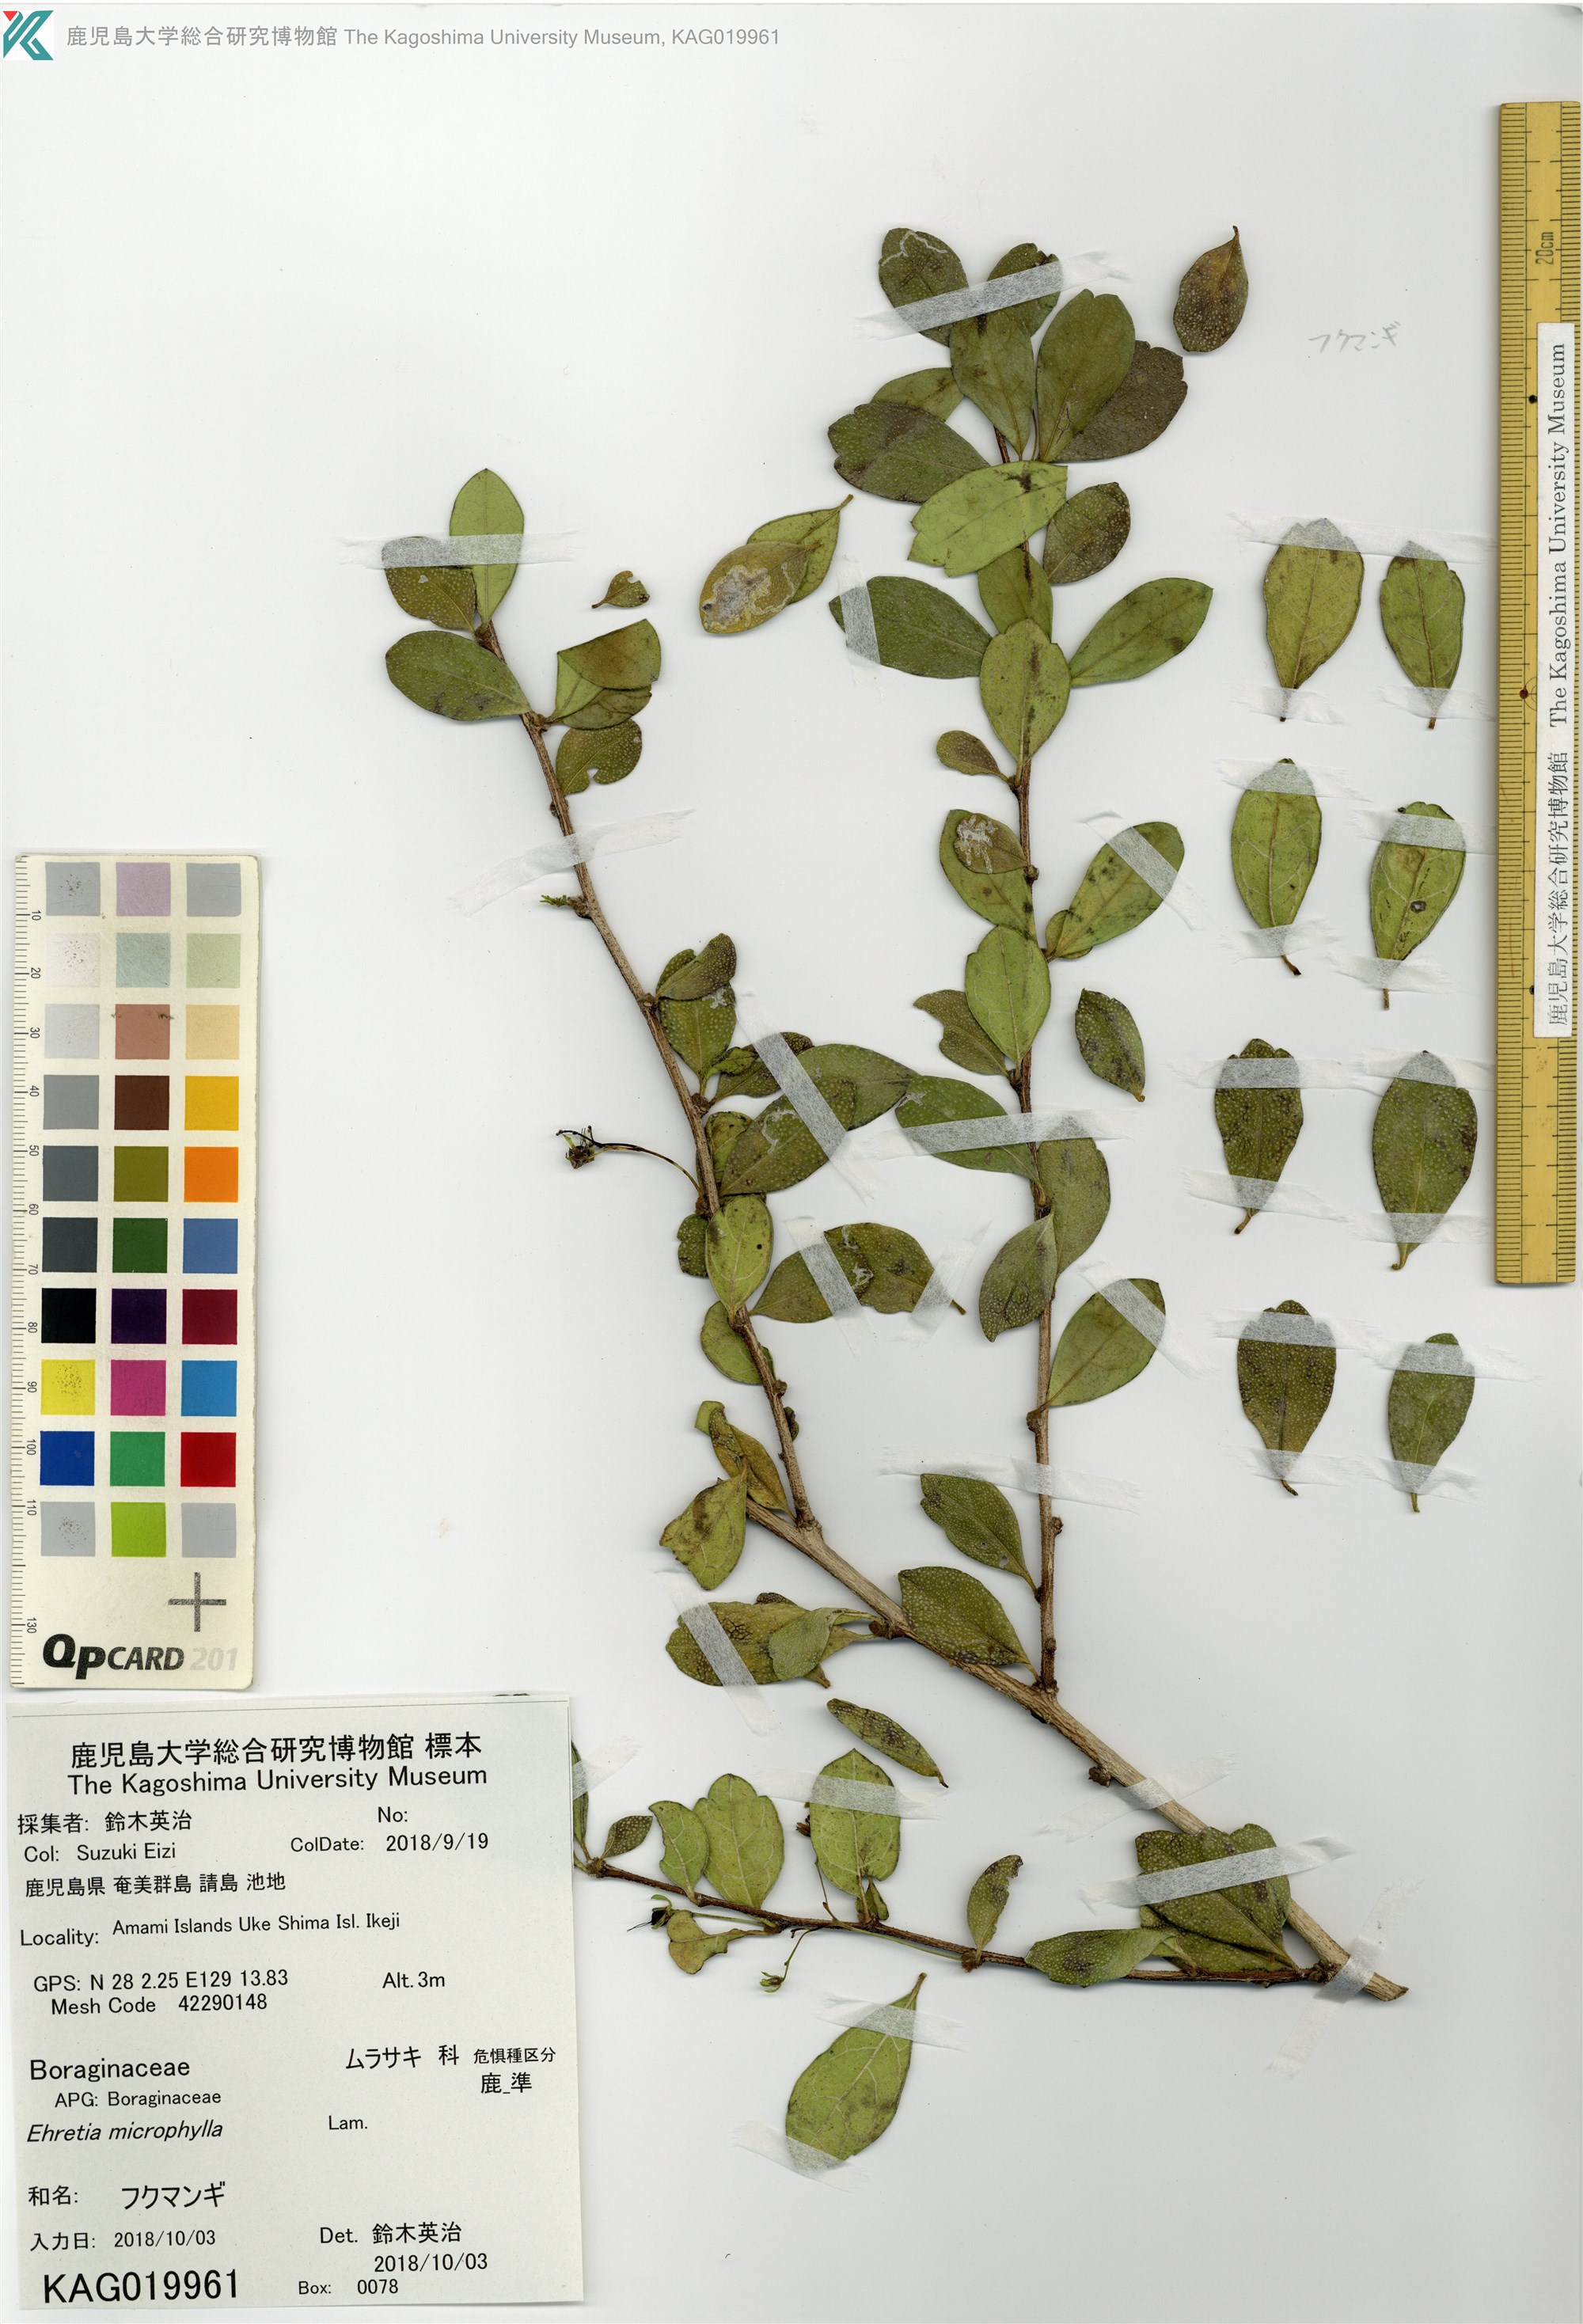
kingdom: Plantae
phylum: Tracheophyta
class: Magnoliopsida
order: Boraginales
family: Ehretiaceae
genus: Ehretia
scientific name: Ehretia microphylla
